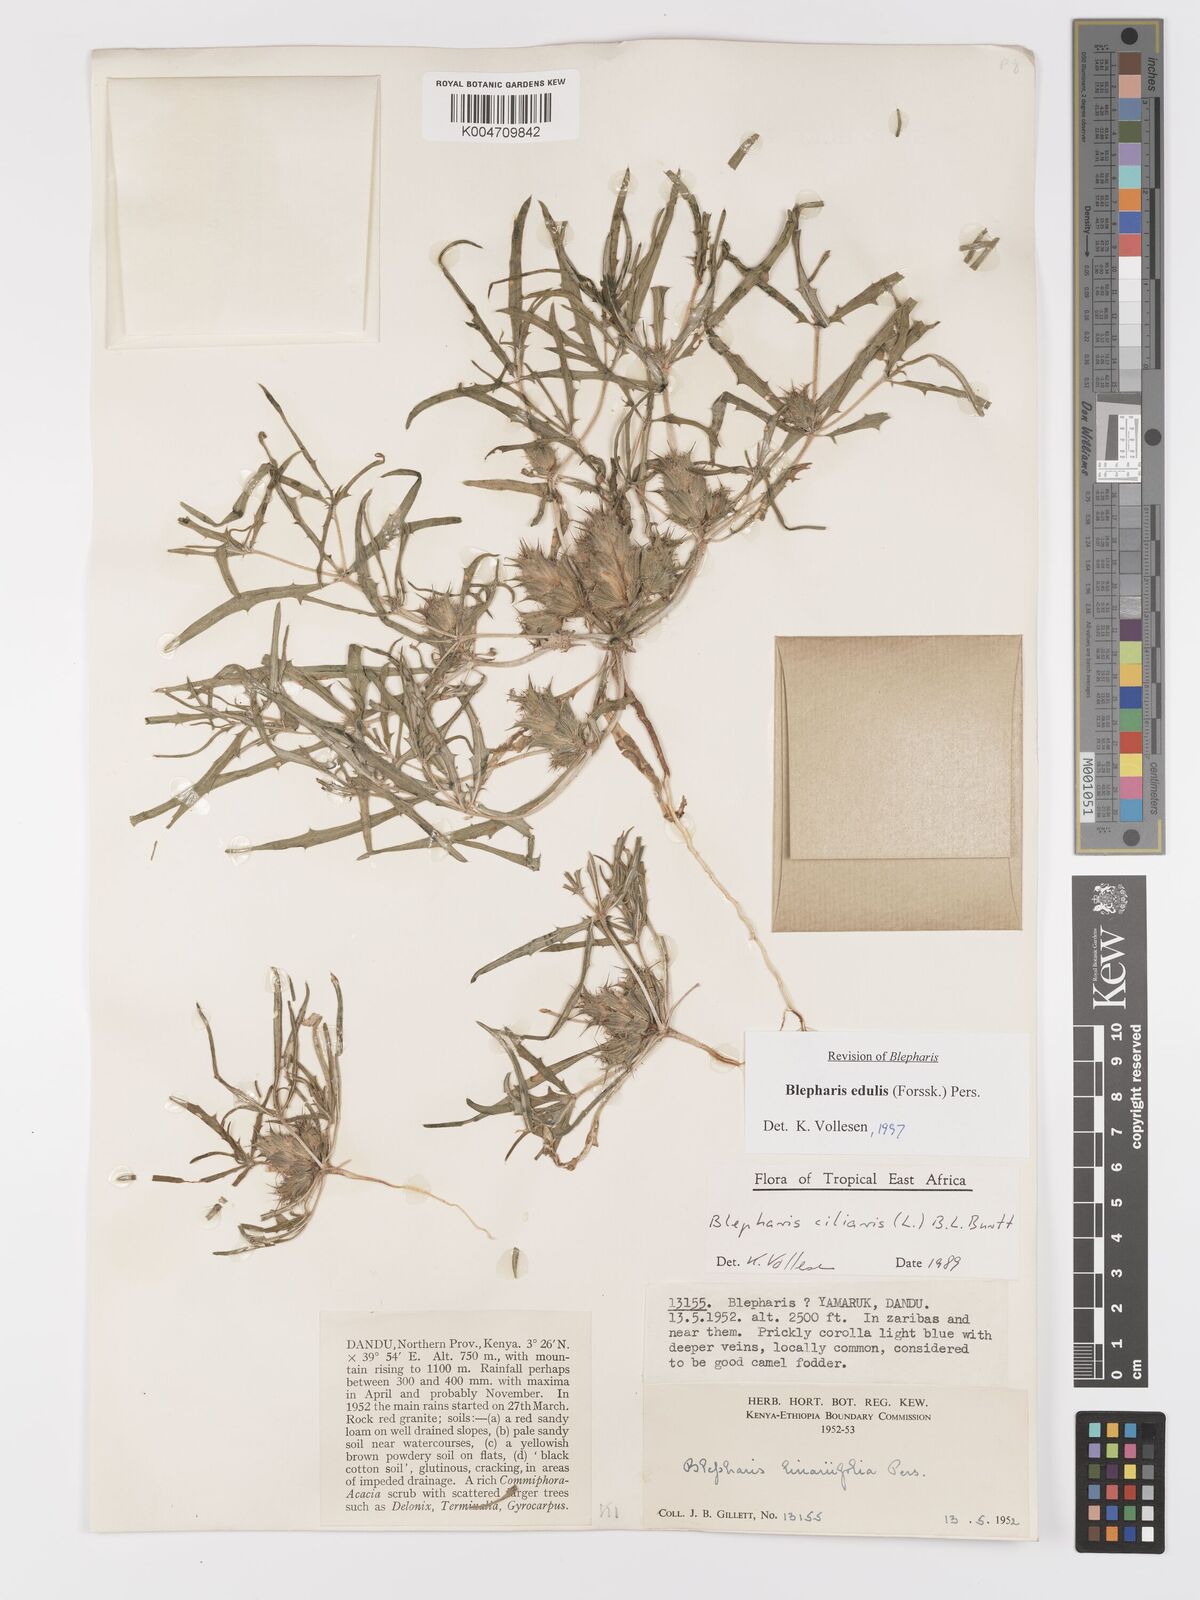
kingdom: Plantae
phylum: Tracheophyta
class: Magnoliopsida
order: Lamiales
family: Acanthaceae
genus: Blepharis
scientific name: Blepharis edulis
